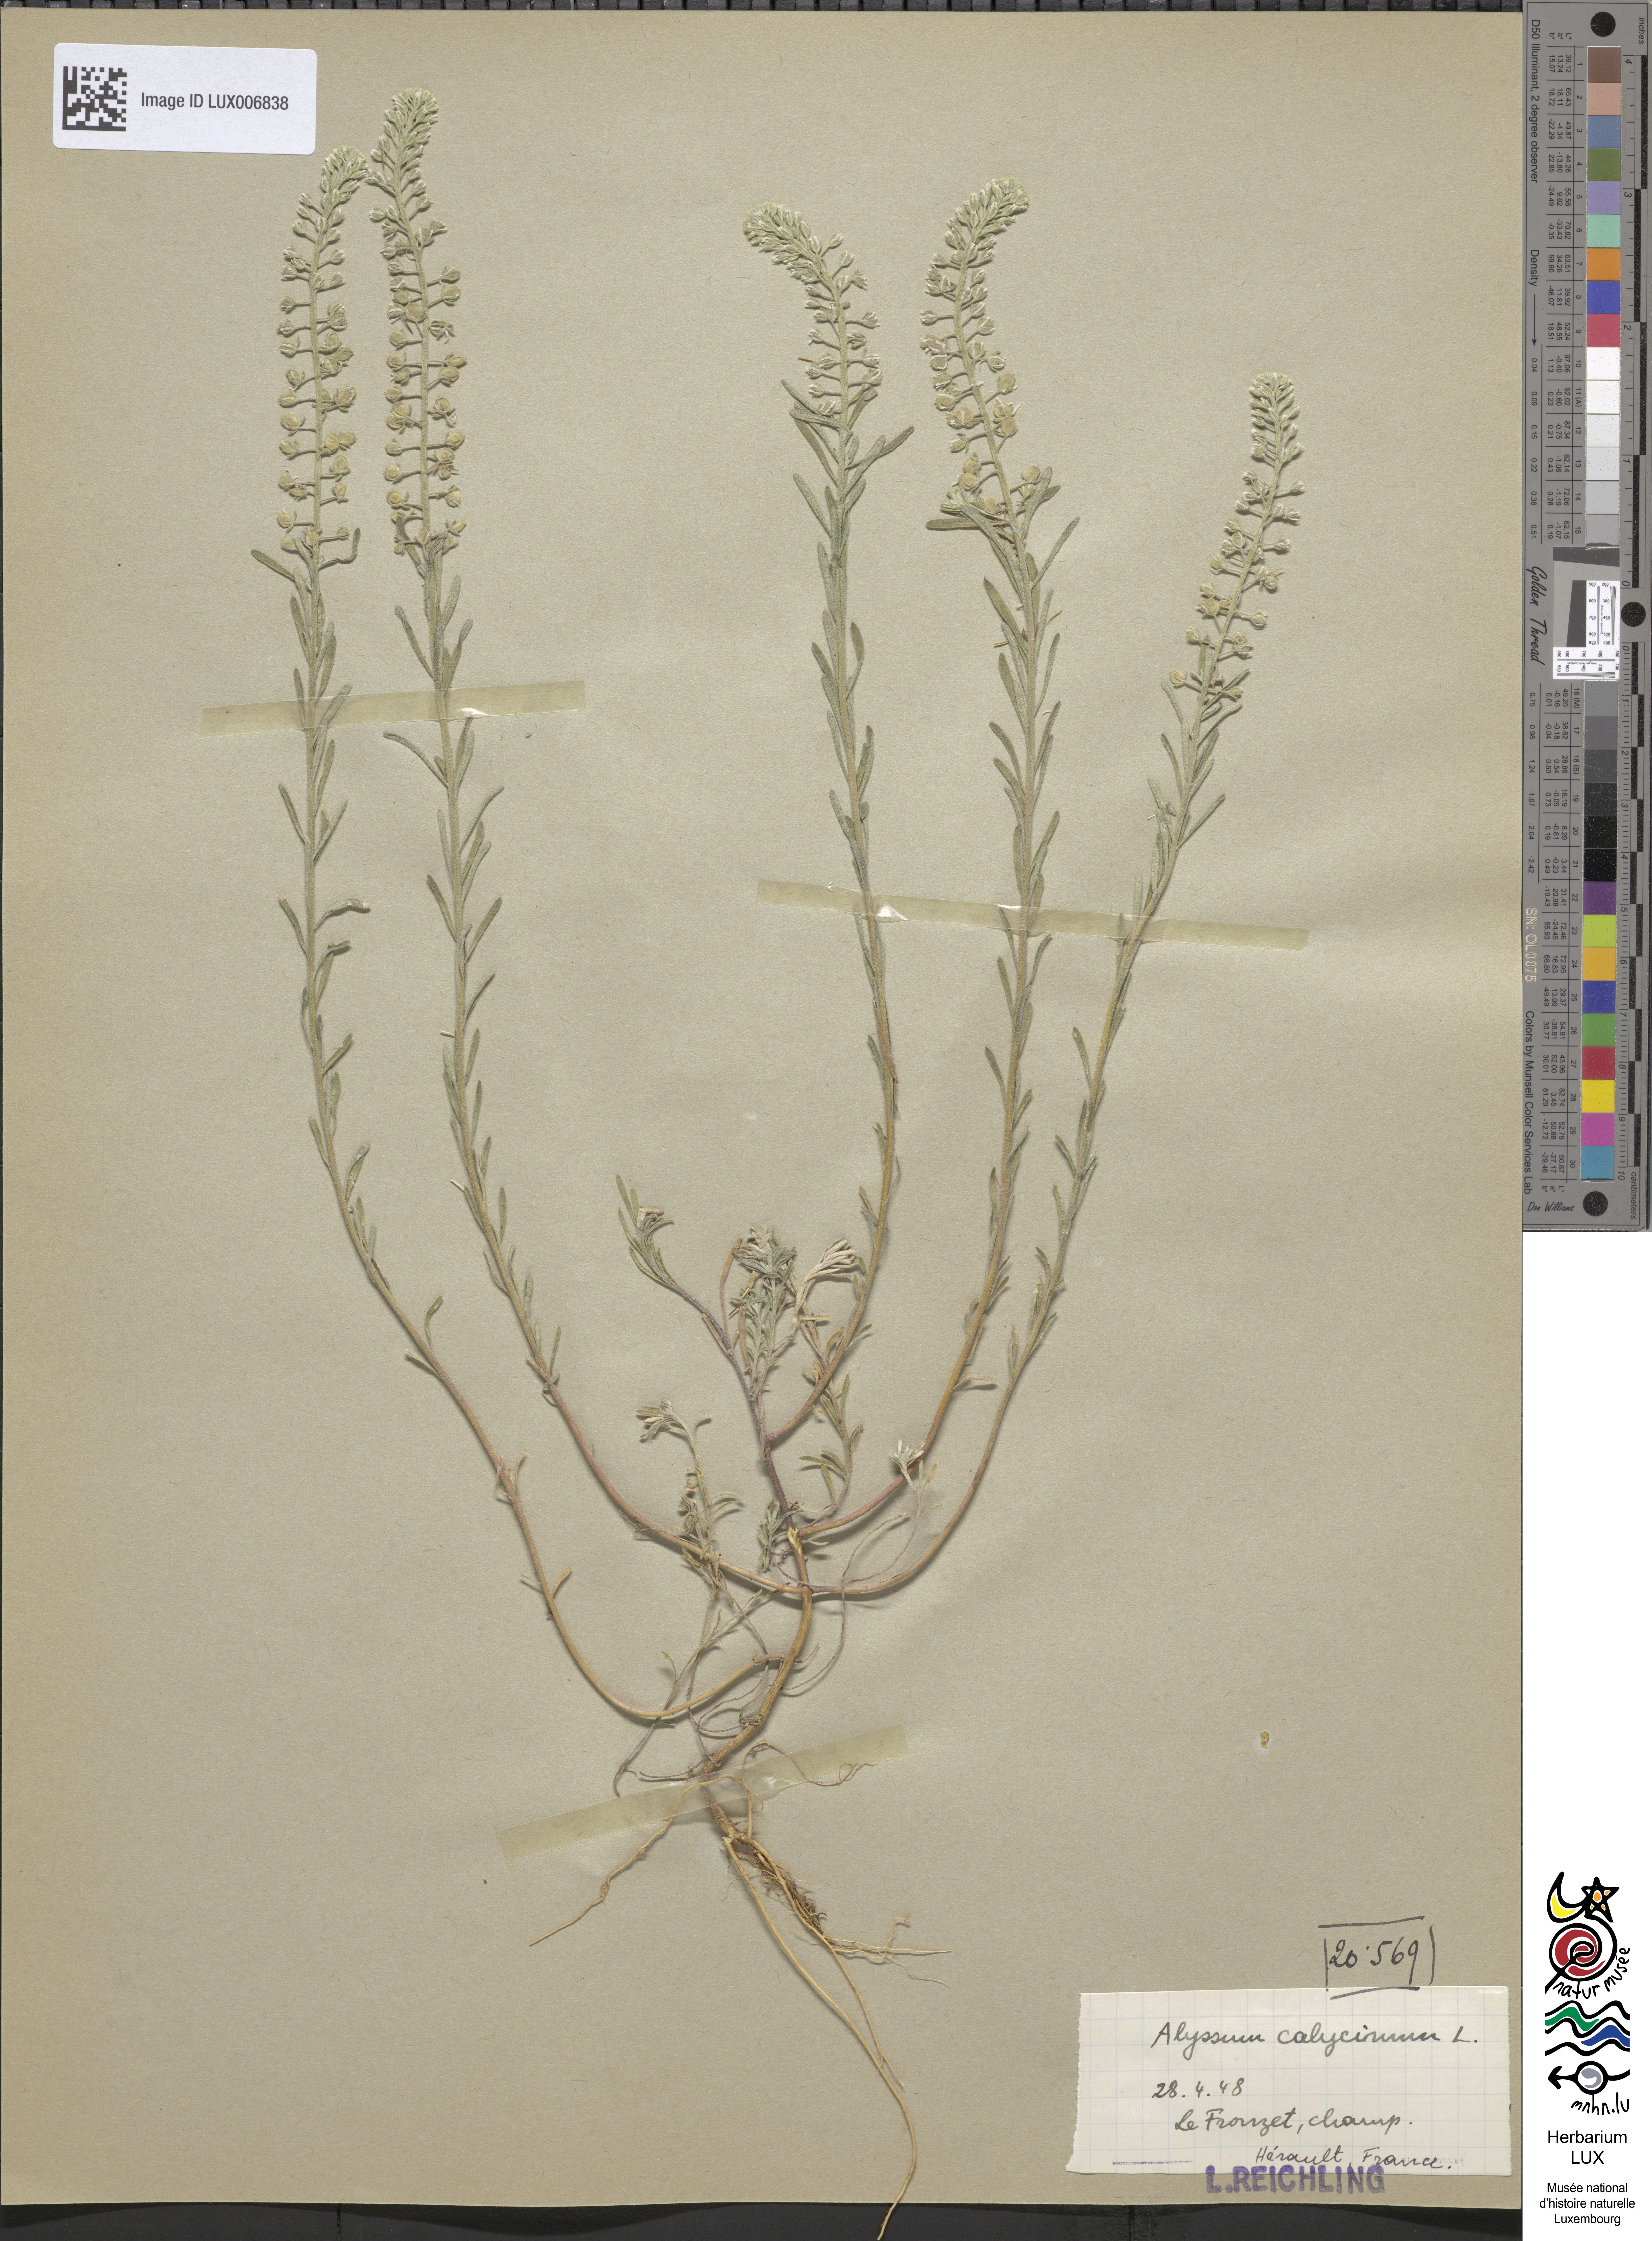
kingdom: Plantae
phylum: Tracheophyta
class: Magnoliopsida
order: Brassicales
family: Brassicaceae
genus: Alyssum
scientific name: Alyssum alyssoides
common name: Small alison
